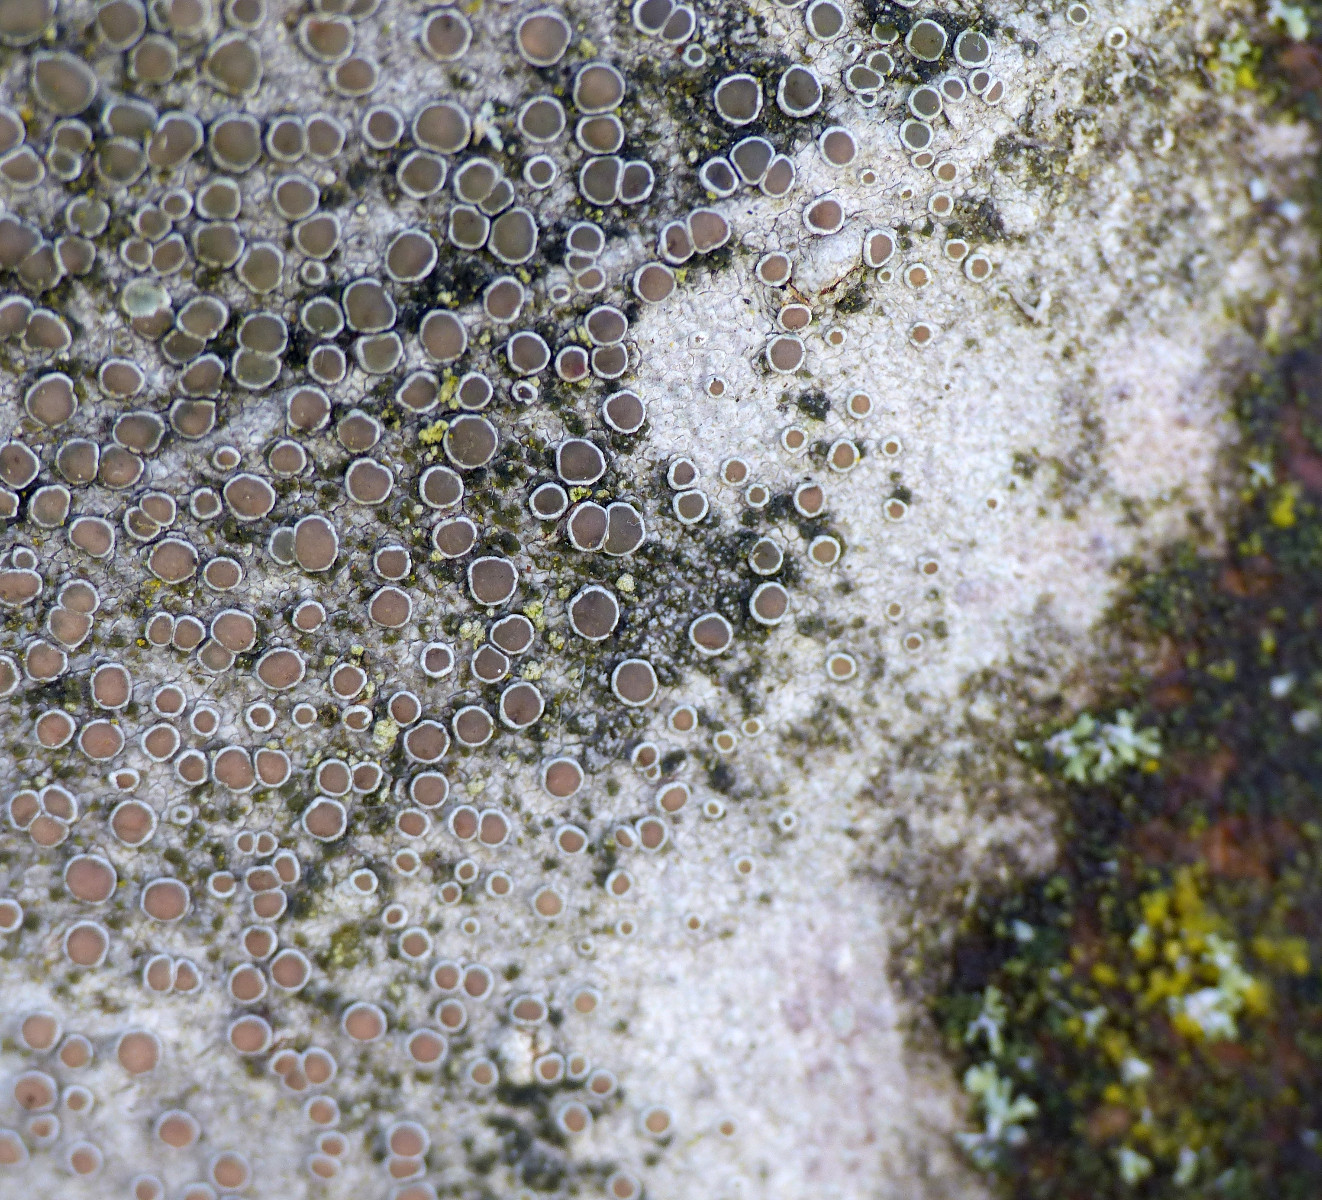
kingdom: Fungi
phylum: Ascomycota
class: Lecanoromycetes
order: Lecanorales
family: Lecanoraceae
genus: Lecanora
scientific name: Lecanora chlarotera
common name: brun kantskivelav
